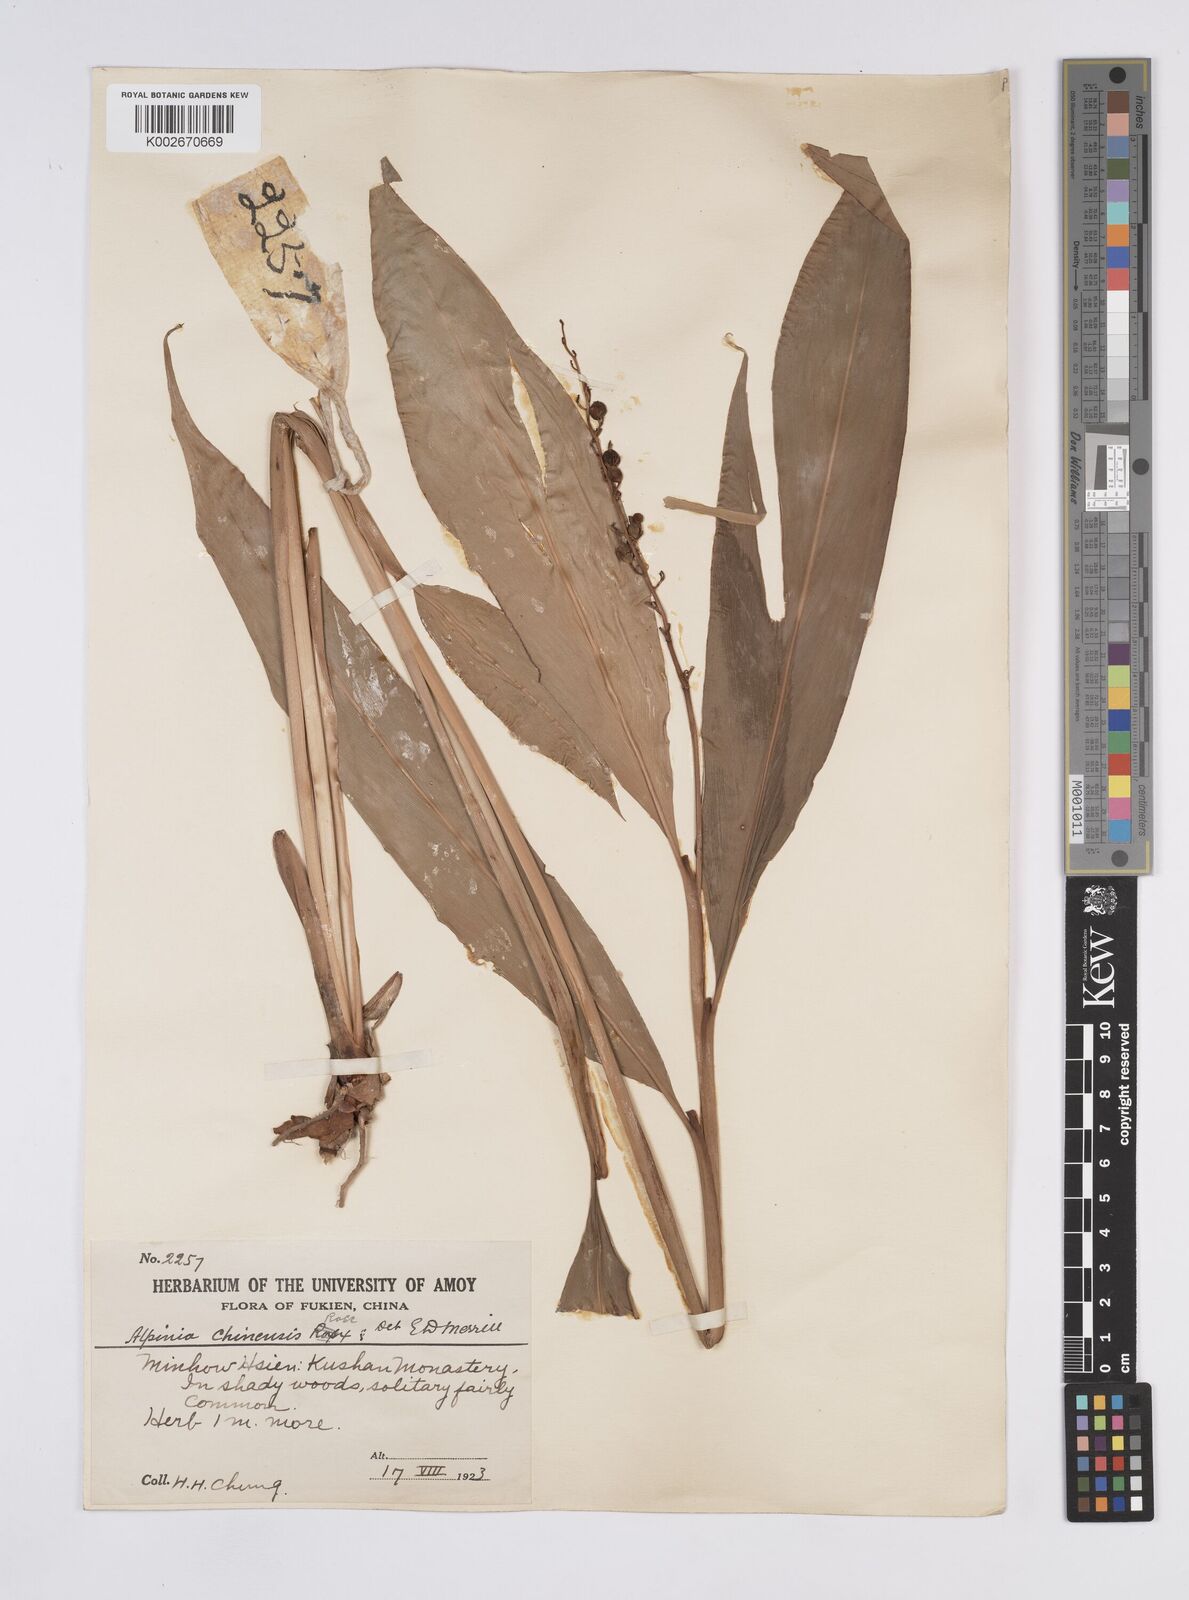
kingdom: Plantae
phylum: Tracheophyta
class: Liliopsida
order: Zingiberales
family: Zingiberaceae
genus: Alpinia
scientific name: Alpinia manii
